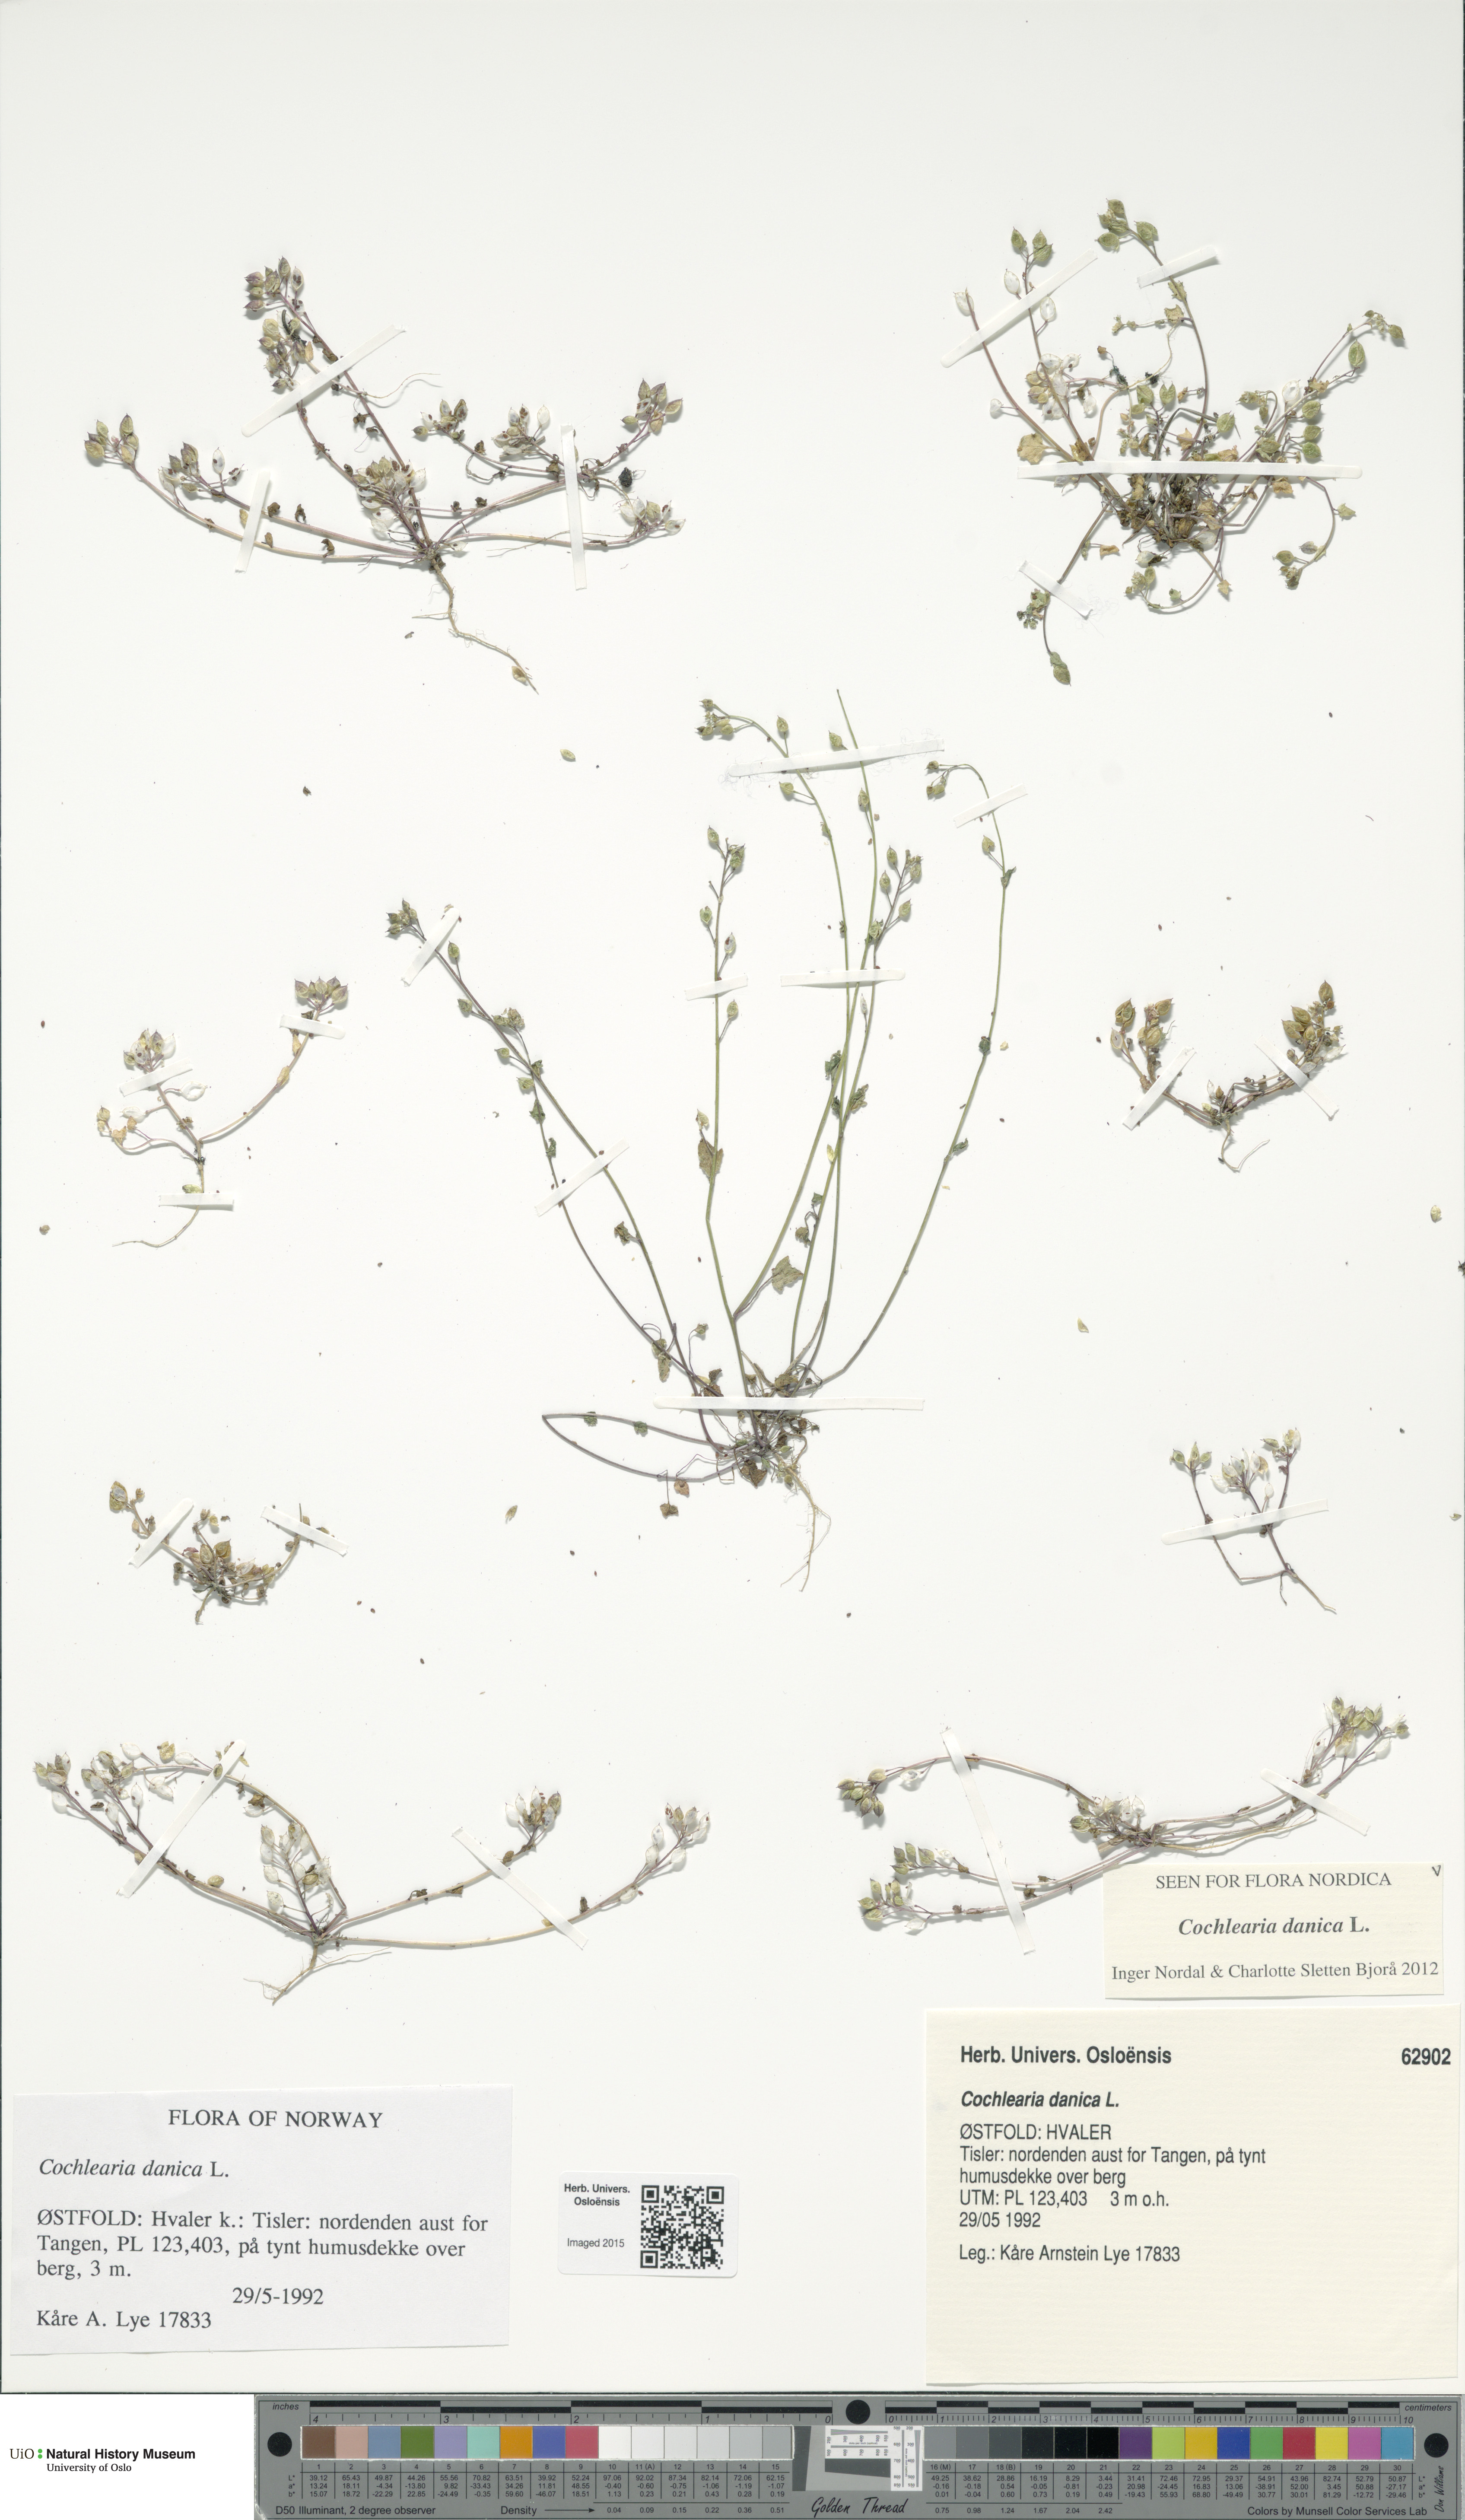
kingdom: Plantae
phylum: Tracheophyta
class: Magnoliopsida
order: Brassicales
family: Brassicaceae
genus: Cochlearia
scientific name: Cochlearia danica
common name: Early scurvygrass
